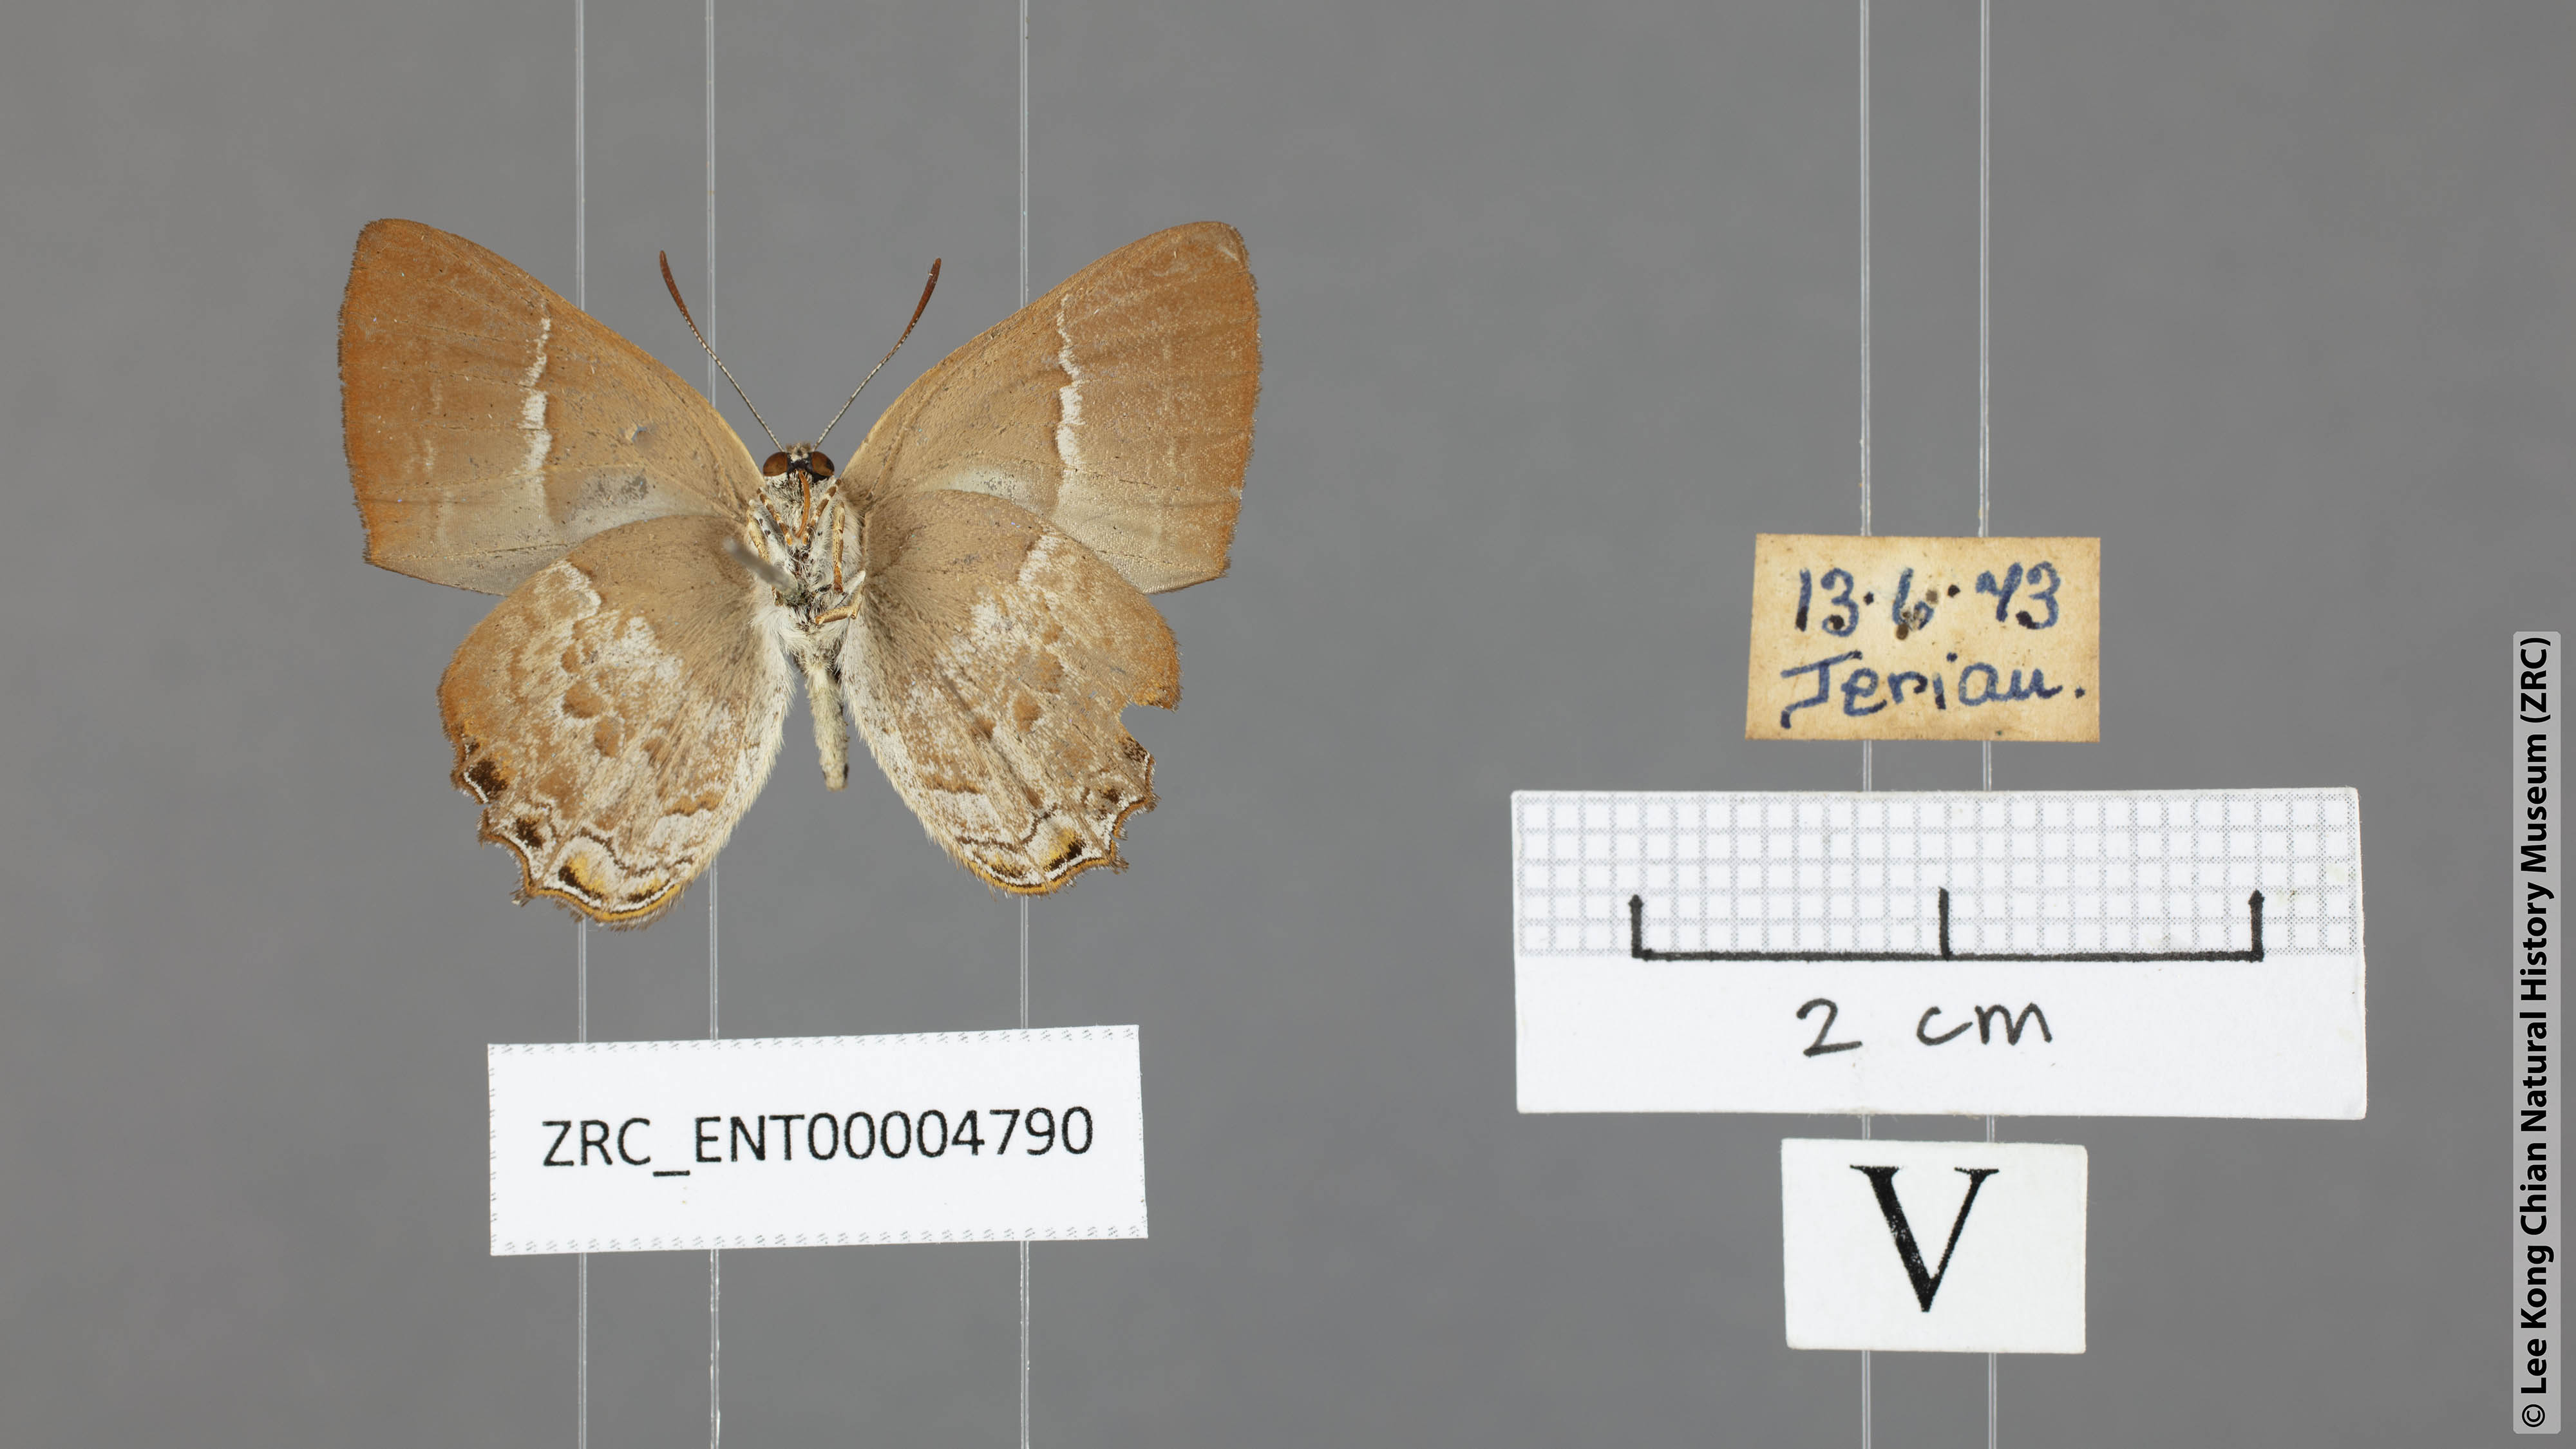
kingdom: Animalia
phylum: Arthropoda
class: Insecta
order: Lepidoptera
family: Lycaenidae
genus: Simiskina
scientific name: Simiskina pheretia
